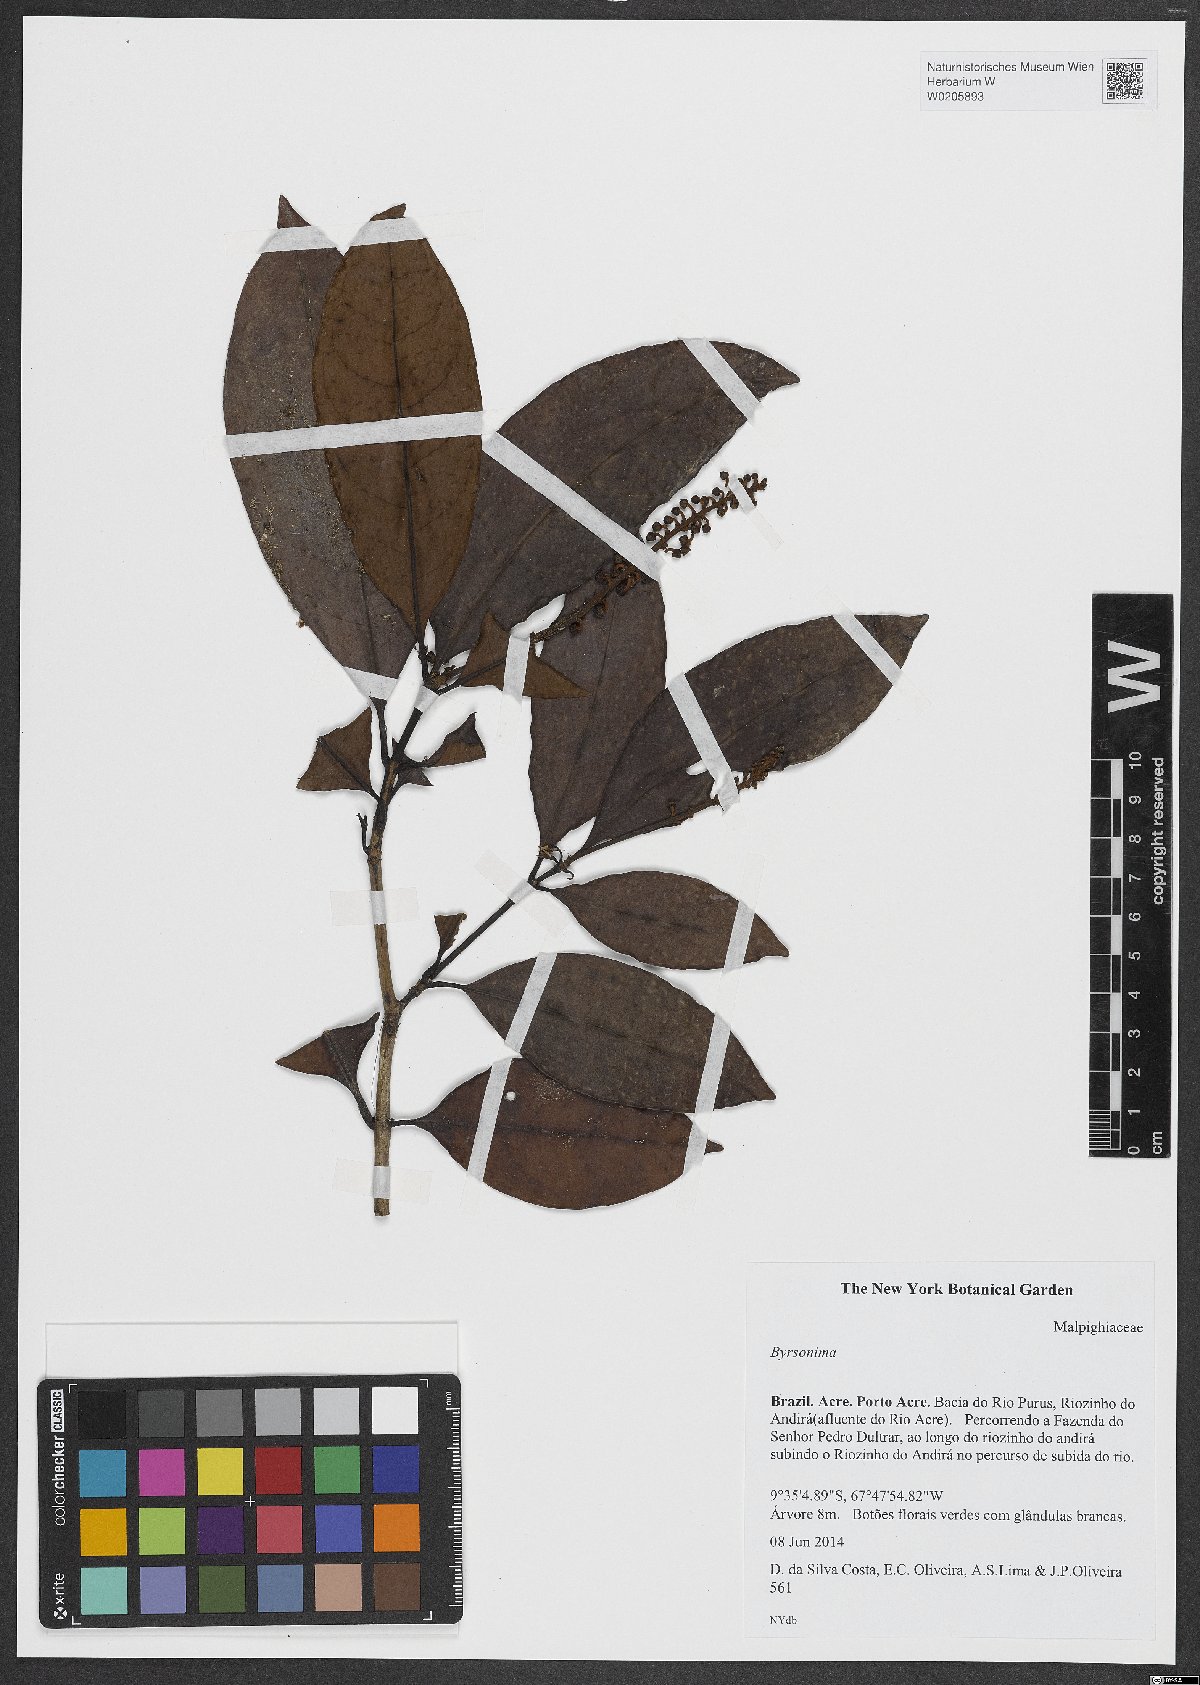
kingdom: Plantae
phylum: Tracheophyta
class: Magnoliopsida
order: Malpighiales
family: Malpighiaceae
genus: Byrsonima
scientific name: Byrsonima
